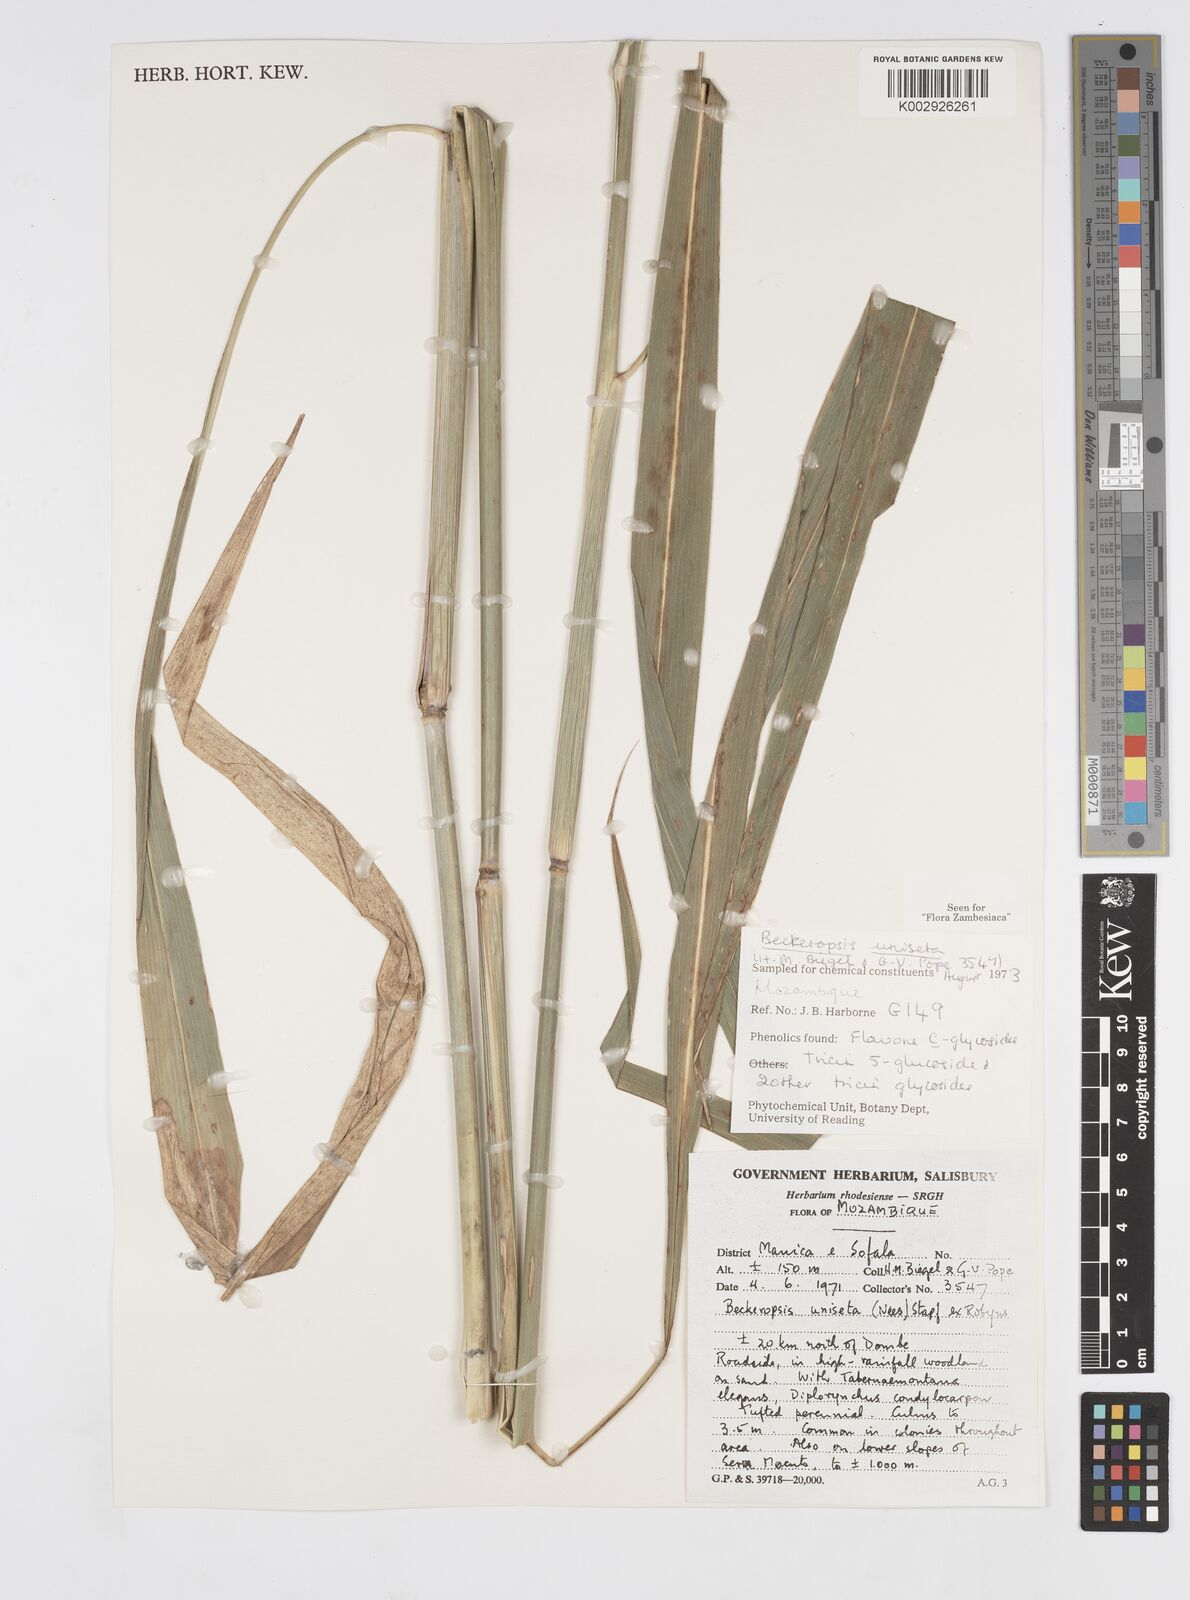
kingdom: Plantae
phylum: Tracheophyta
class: Liliopsida
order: Poales
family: Poaceae
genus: Cenchrus
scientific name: Cenchrus unisetus
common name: Natal grass
